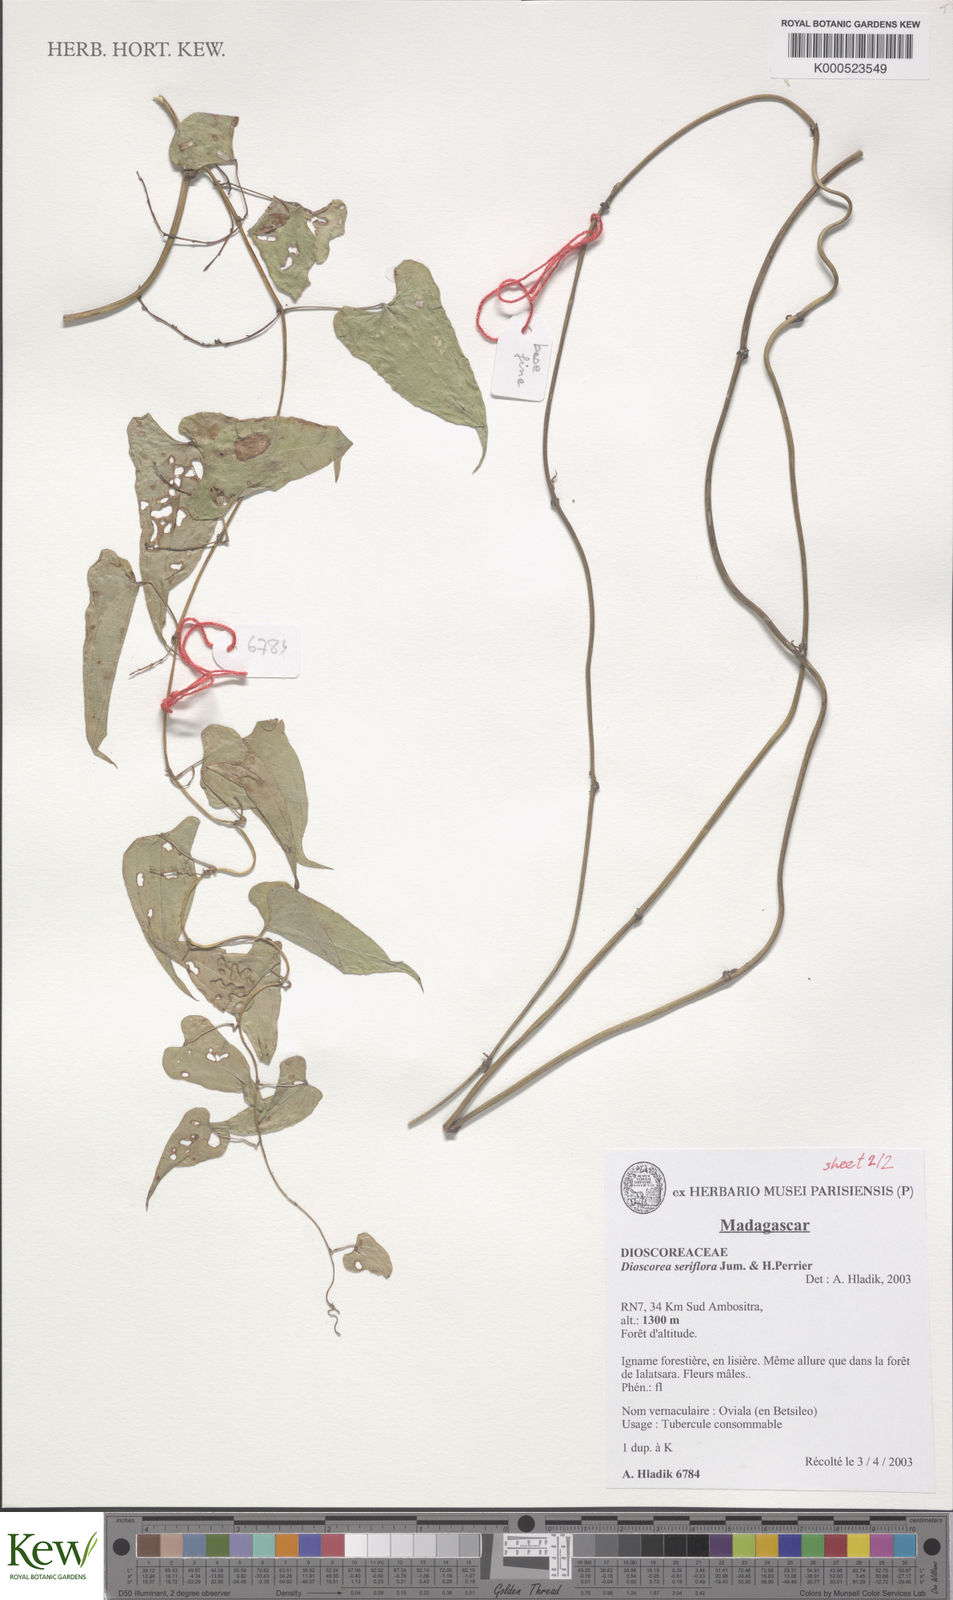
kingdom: Plantae
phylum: Tracheophyta
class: Liliopsida
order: Dioscoreales
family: Dioscoreaceae
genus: Dioscorea
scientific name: Dioscorea seriflora
